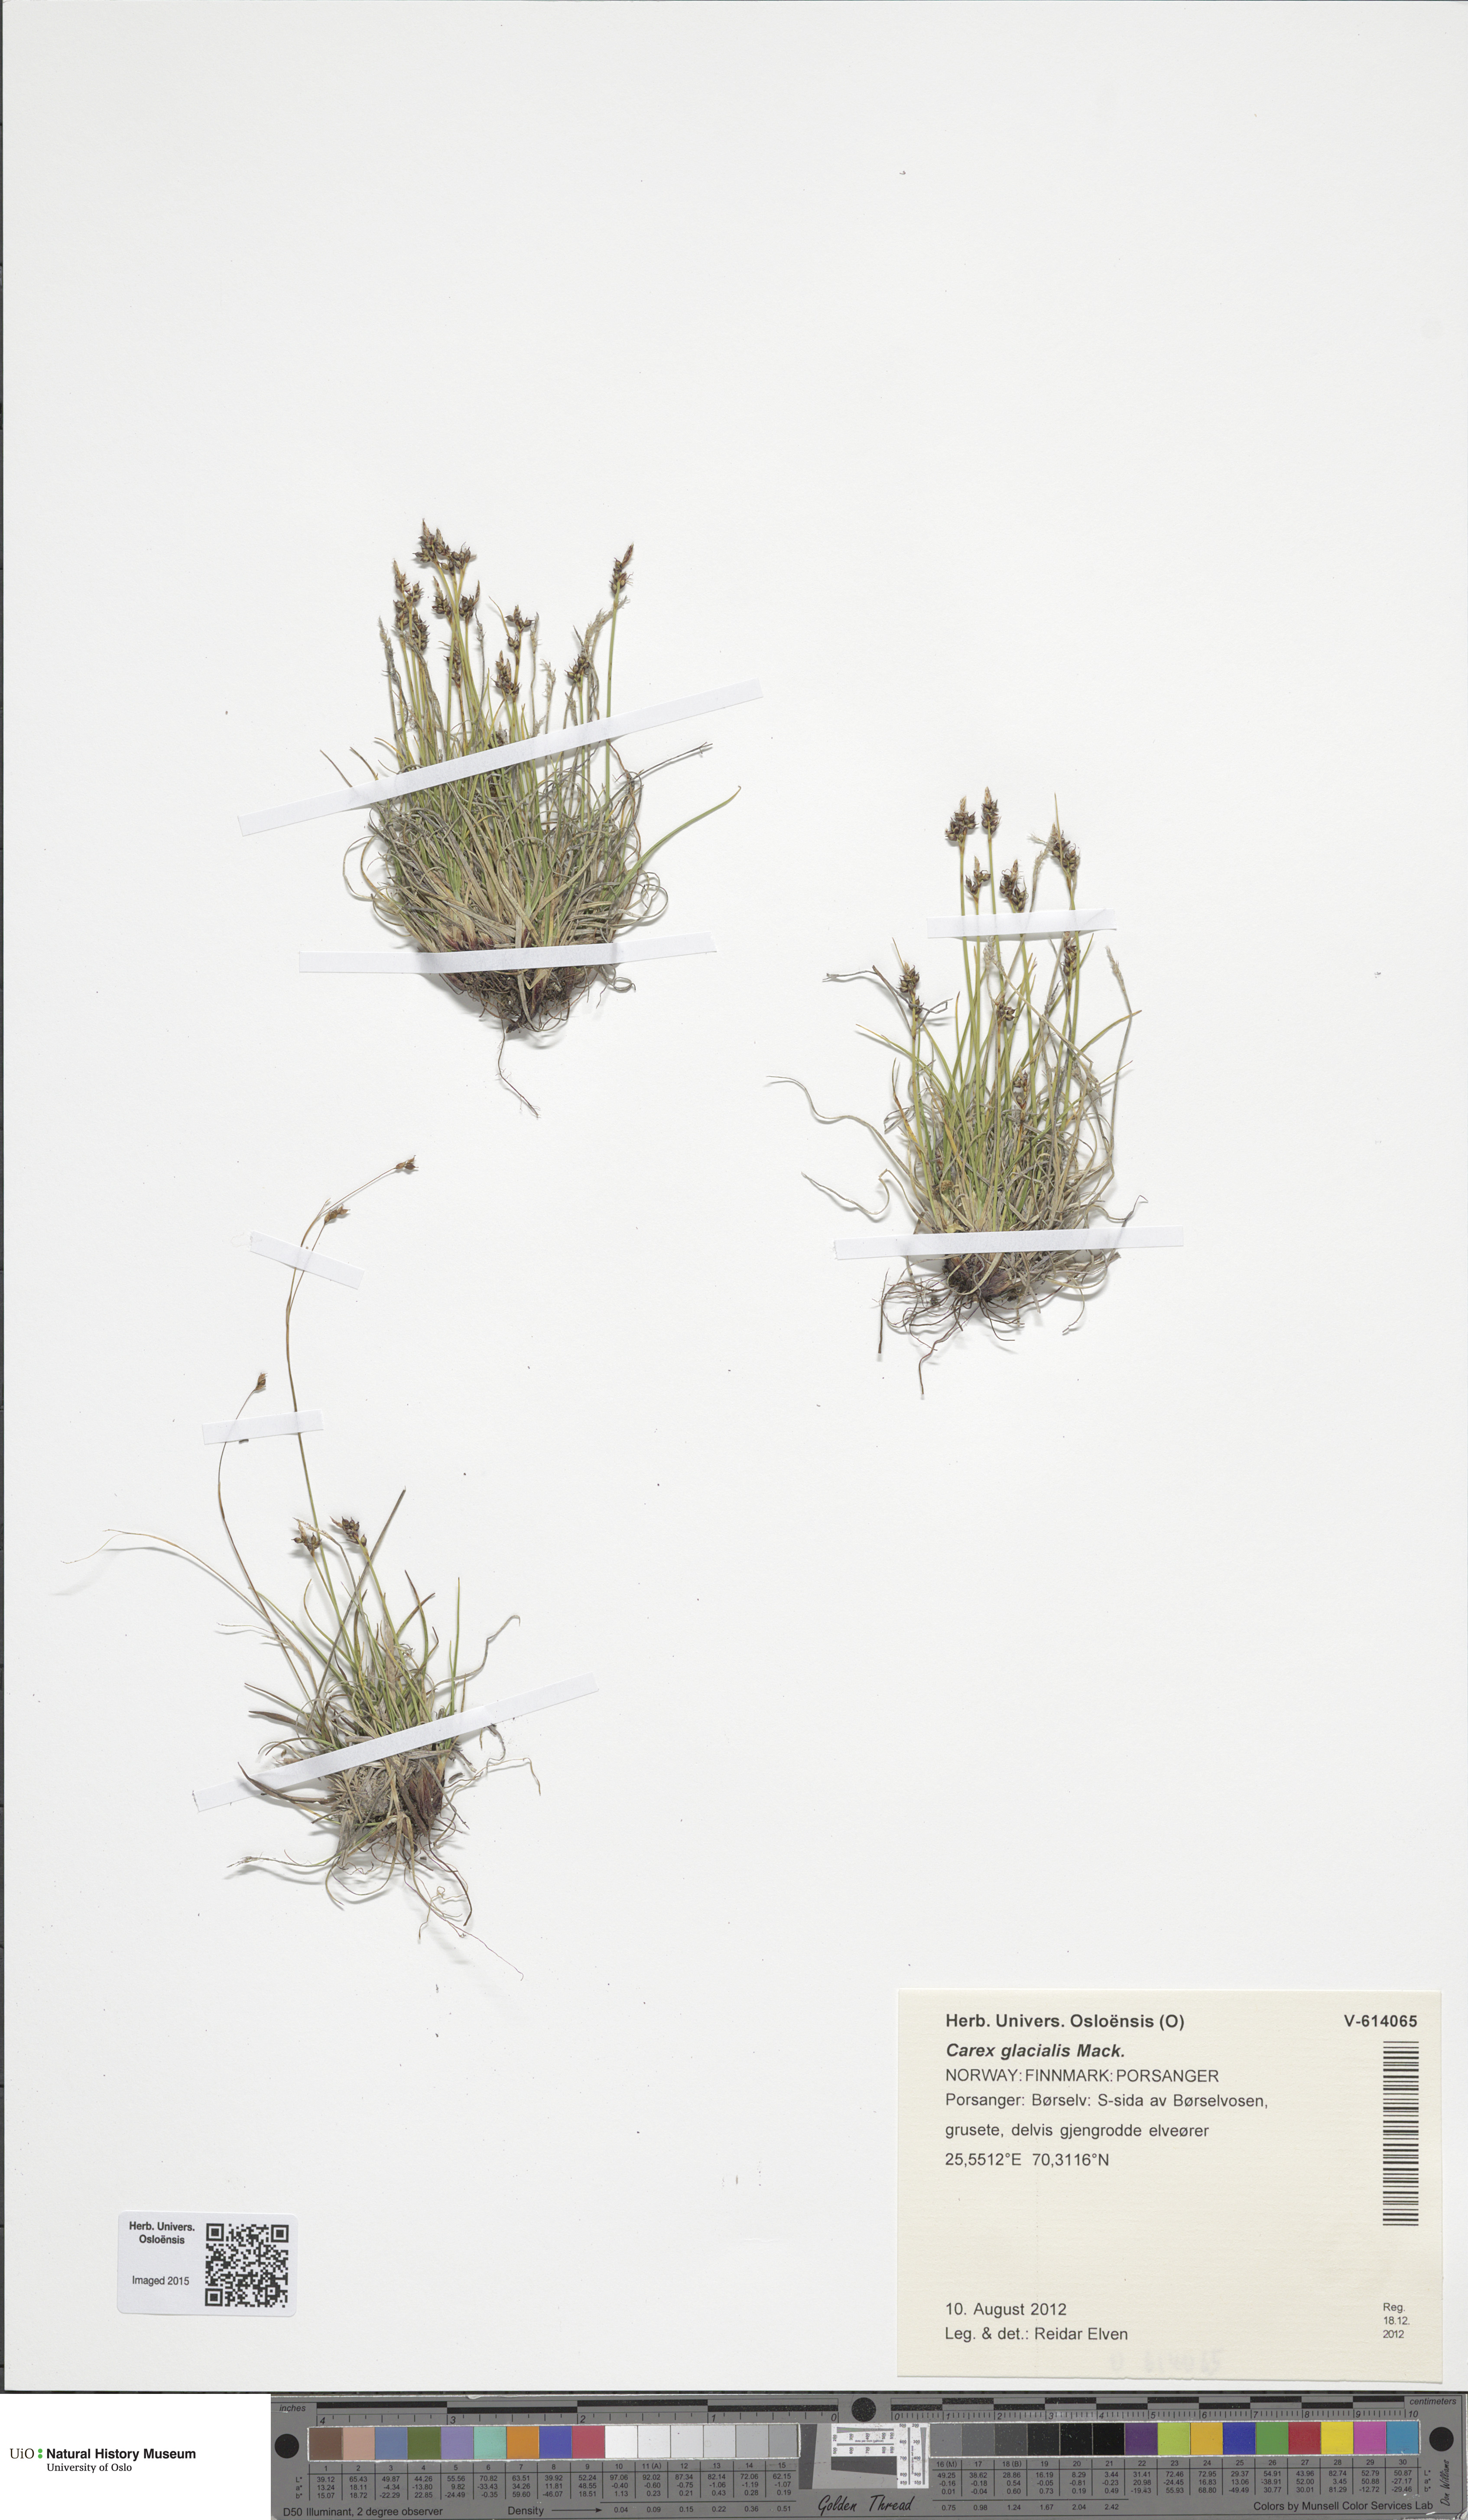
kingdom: Plantae
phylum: Tracheophyta
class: Liliopsida
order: Poales
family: Cyperaceae
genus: Carex
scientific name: Carex glacialis
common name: Newfoundland sedge
